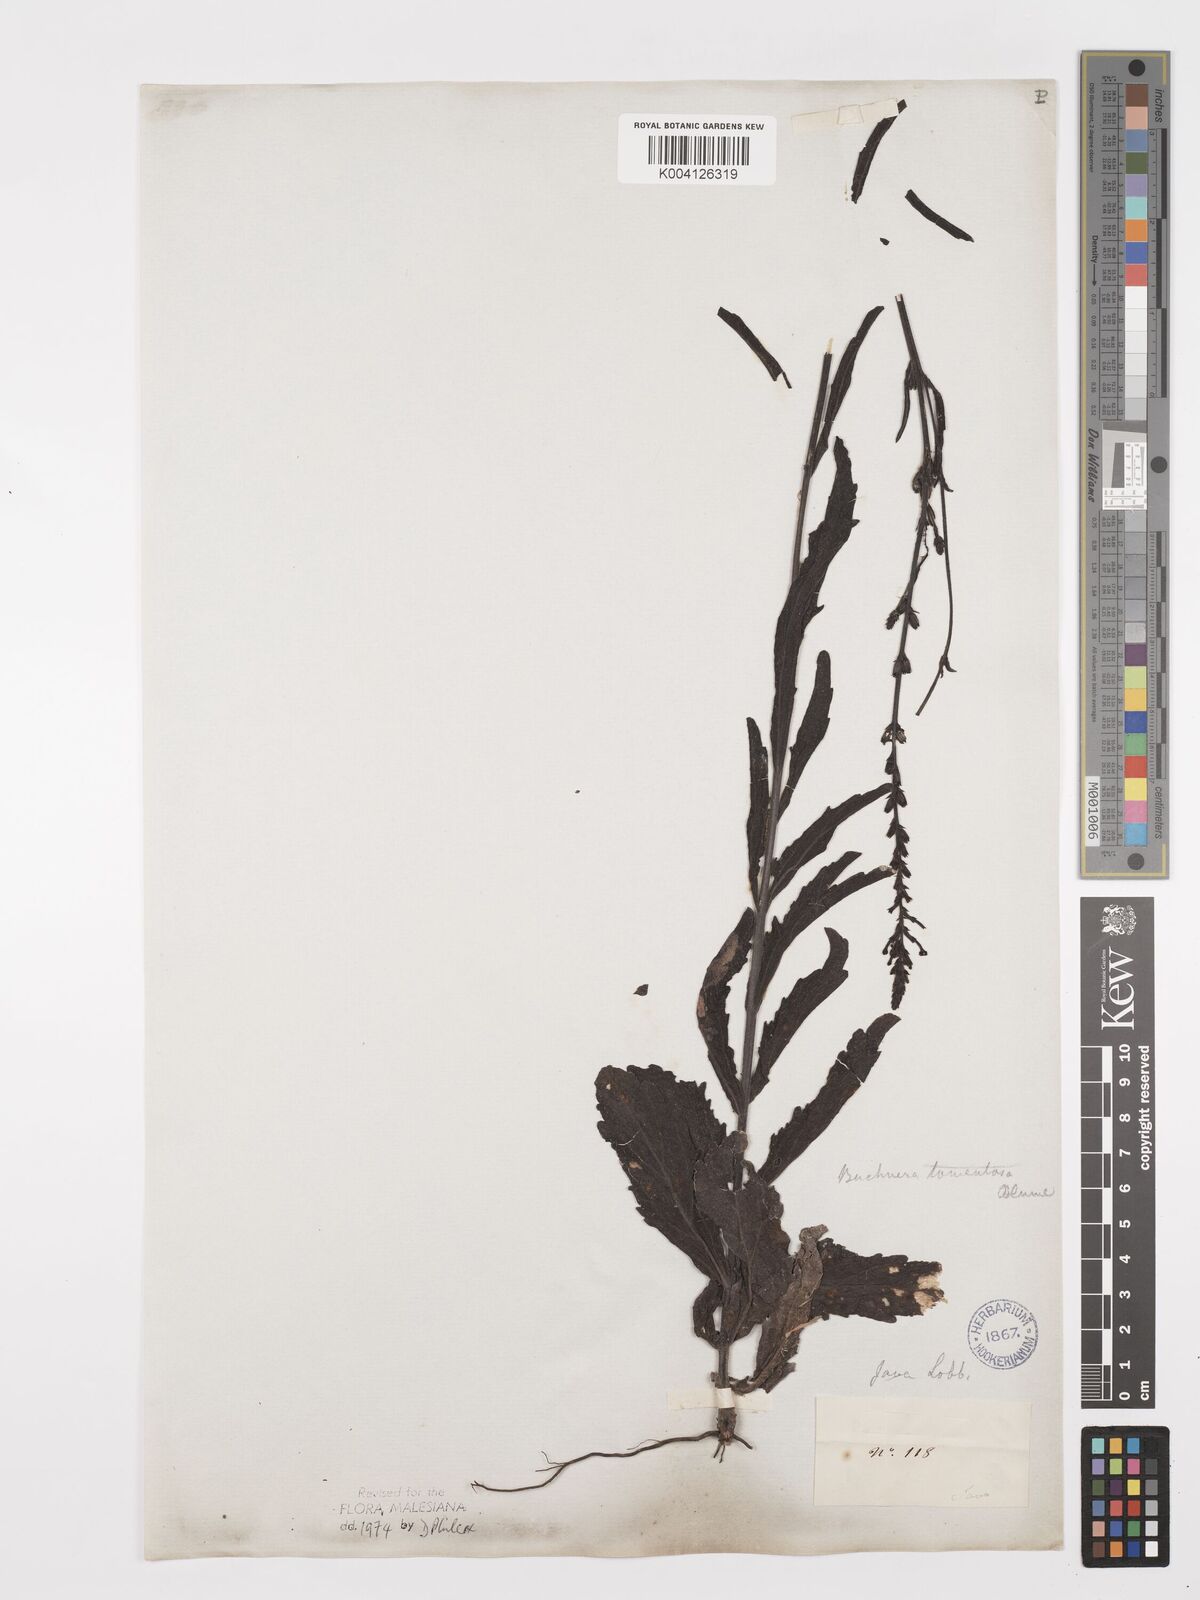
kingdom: Plantae
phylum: Tracheophyta
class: Magnoliopsida
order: Lamiales
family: Orobanchaceae
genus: Buchnera
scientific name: Buchnera tomentosa
